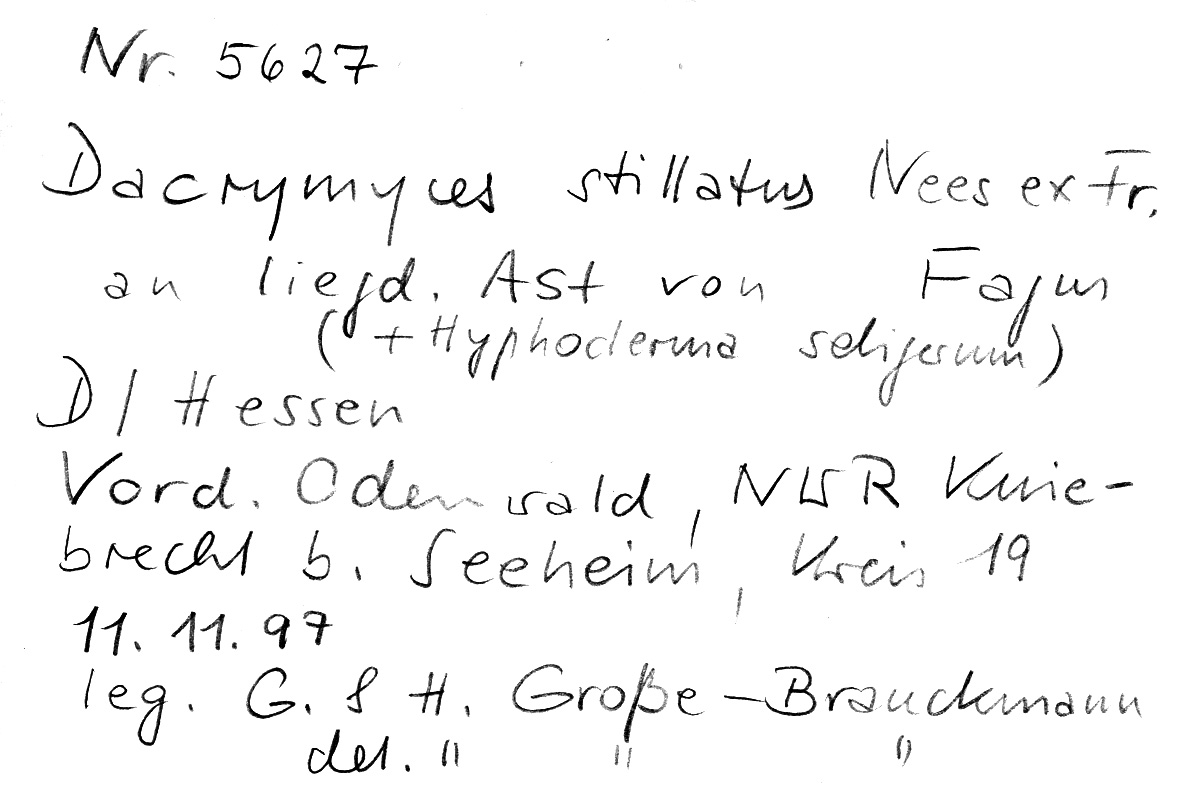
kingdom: Plantae
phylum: Tracheophyta
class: Magnoliopsida
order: Fagales
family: Fagaceae
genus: Fagus
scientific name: Fagus sylvatica
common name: Beech
